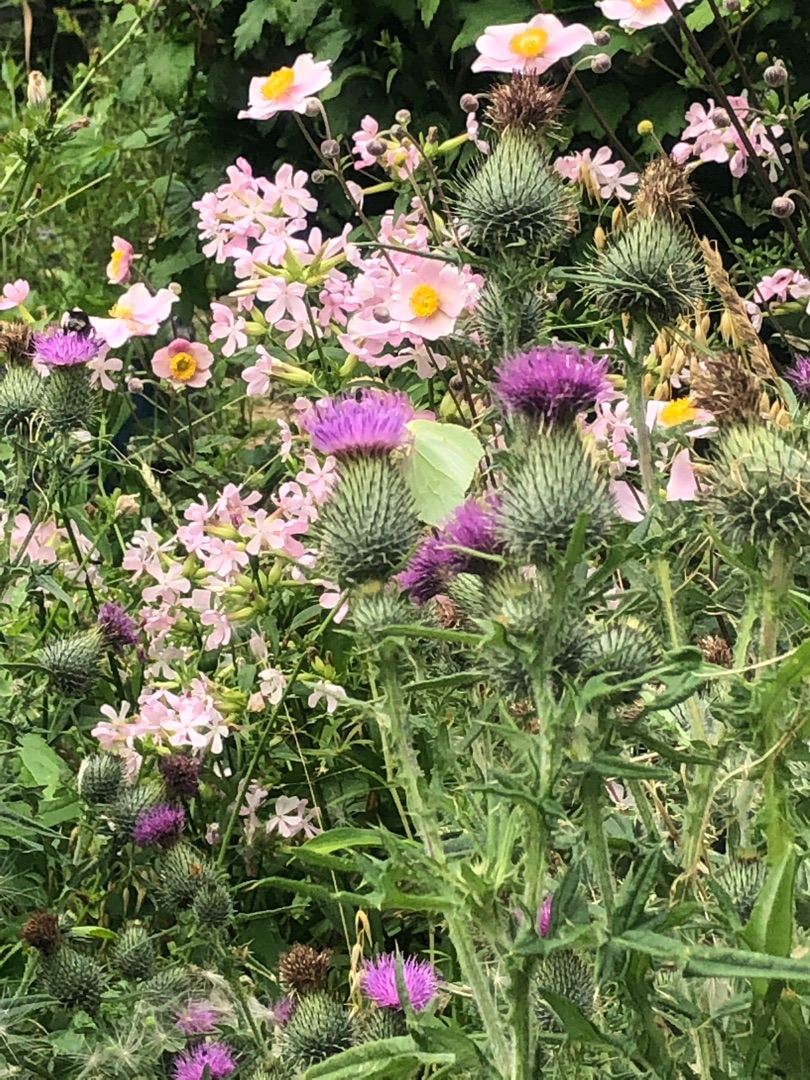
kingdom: Animalia
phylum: Arthropoda
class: Insecta
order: Lepidoptera
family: Pieridae
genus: Gonepteryx
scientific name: Gonepteryx rhamni
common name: Citronsommerfugl
